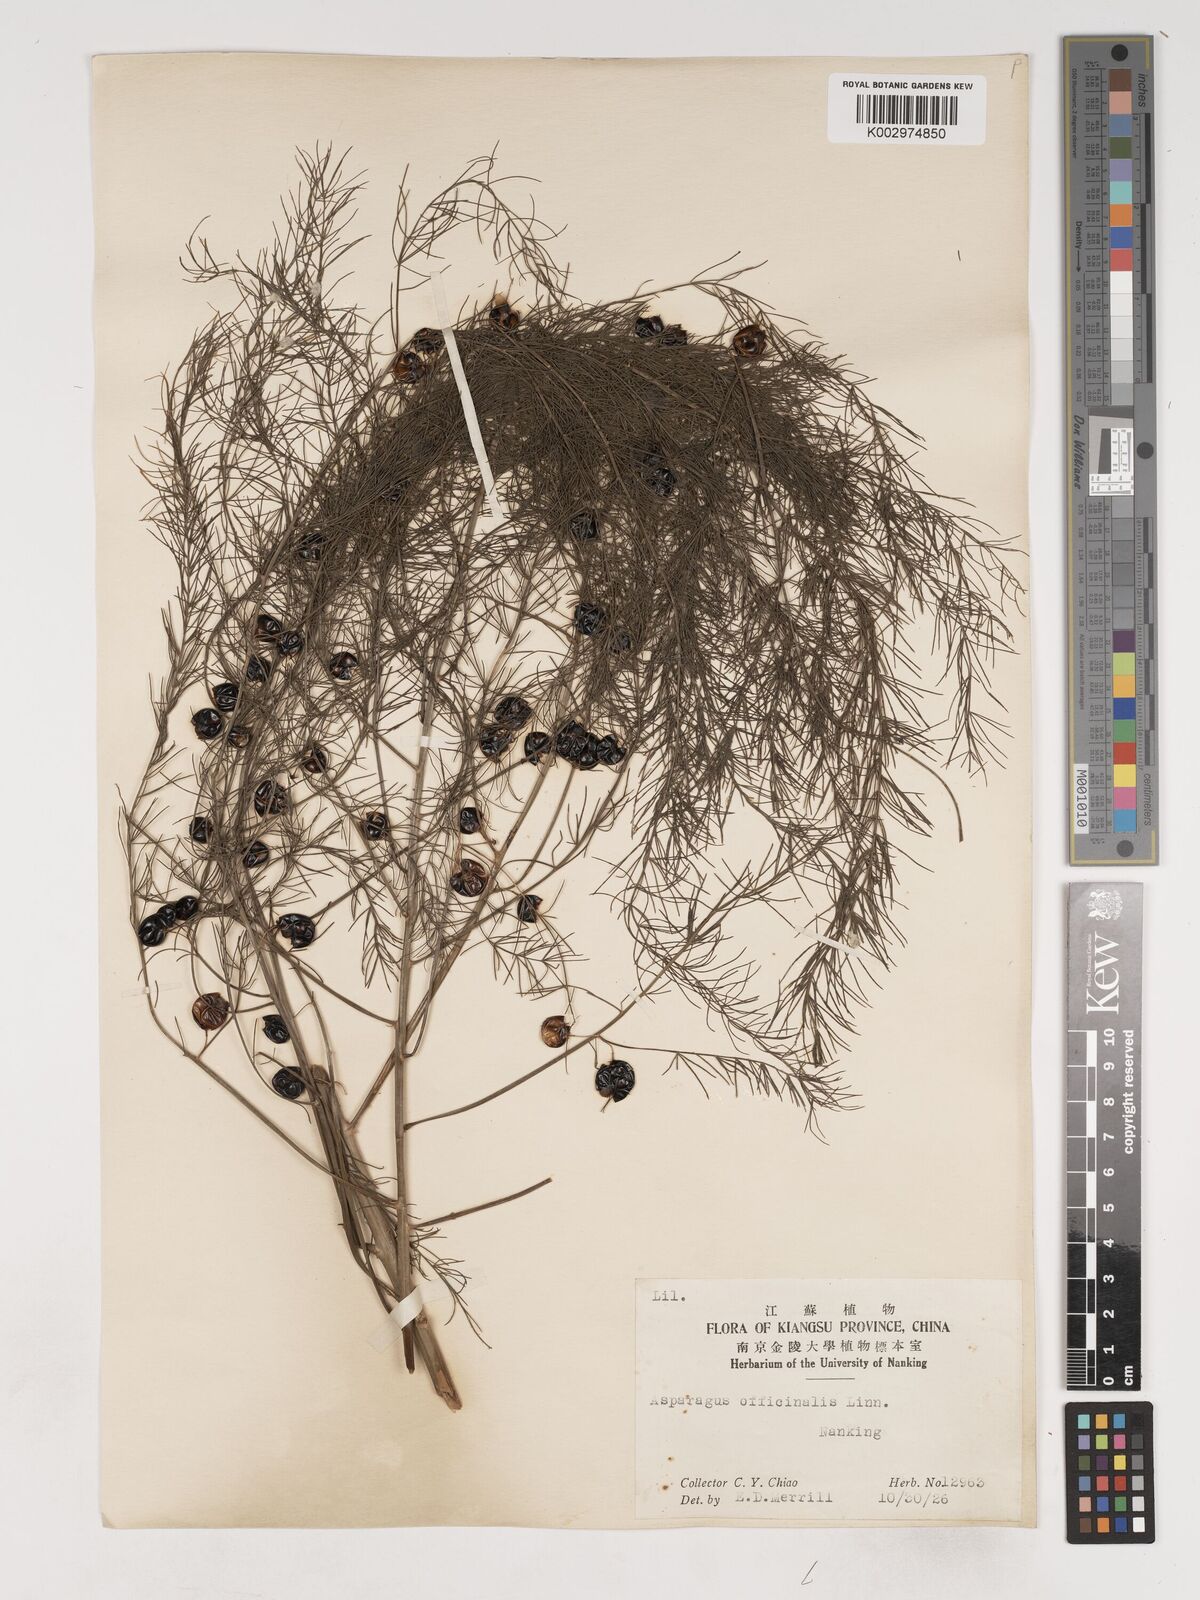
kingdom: Plantae
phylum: Tracheophyta
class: Liliopsida
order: Asparagales
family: Asparagaceae
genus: Asparagus
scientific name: Asparagus officinalis
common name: Garden asparagus
